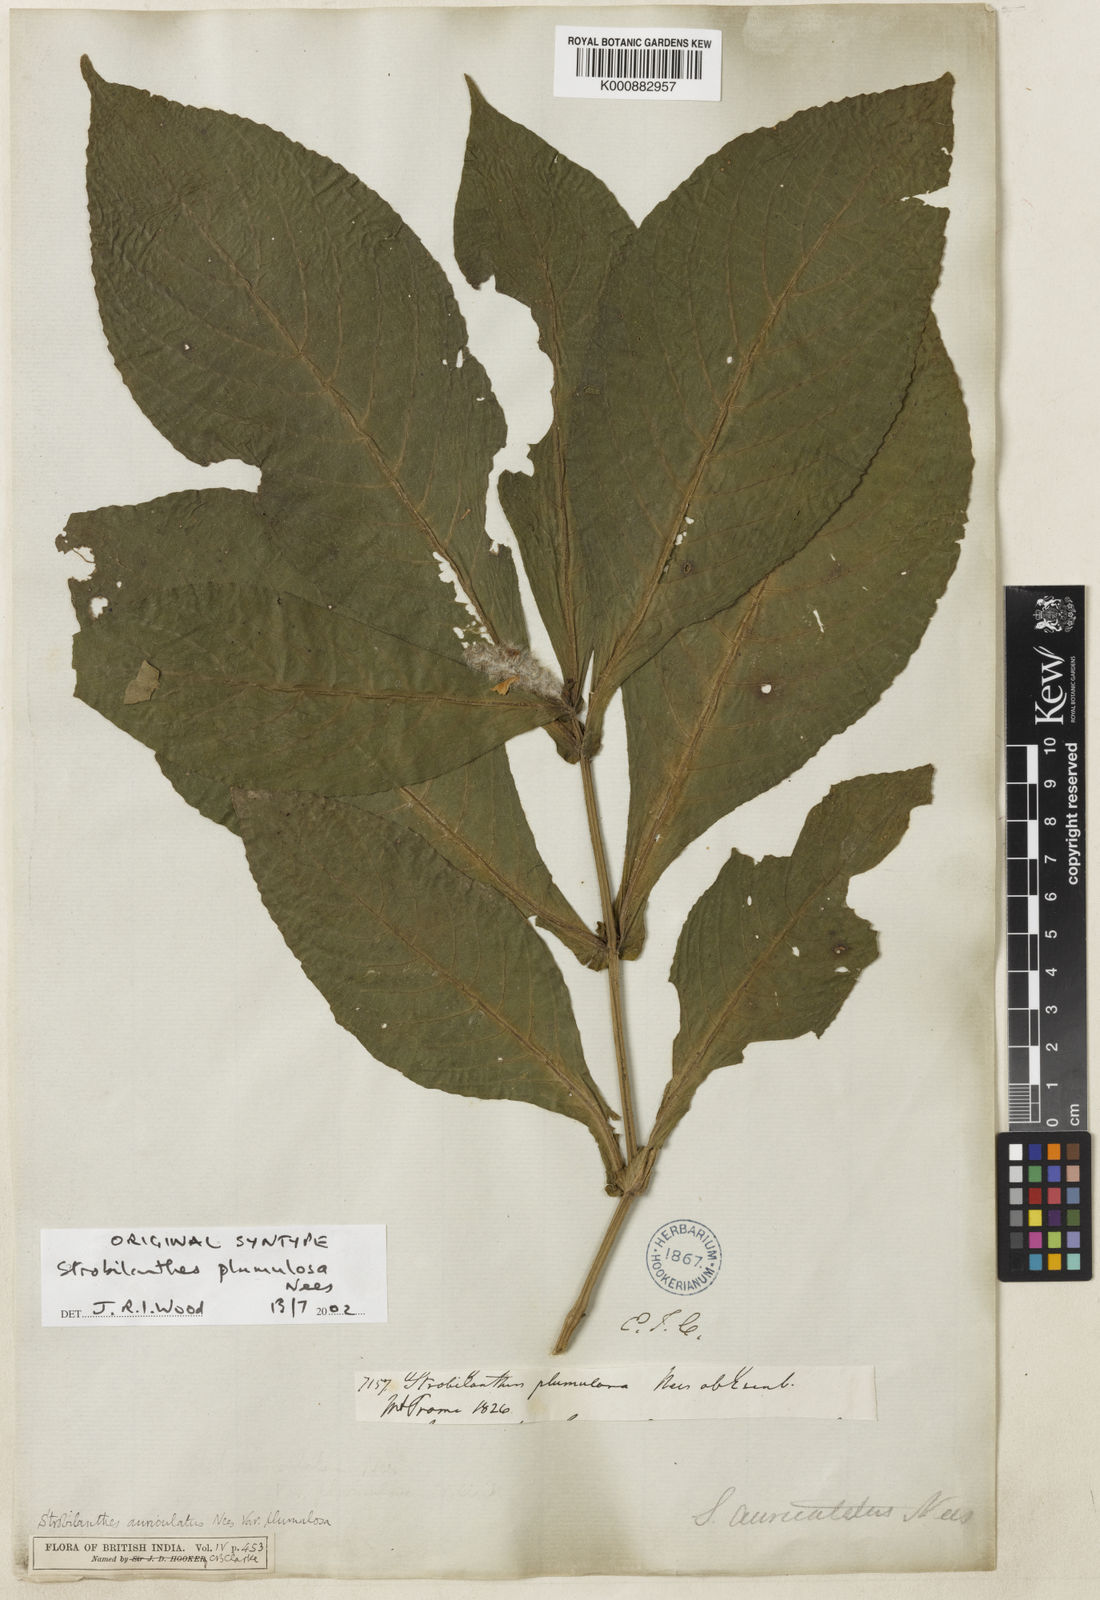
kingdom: Plantae
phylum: Tracheophyta
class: Magnoliopsida
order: Lamiales
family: Acanthaceae
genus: Strobilanthes
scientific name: Strobilanthes auriculata
